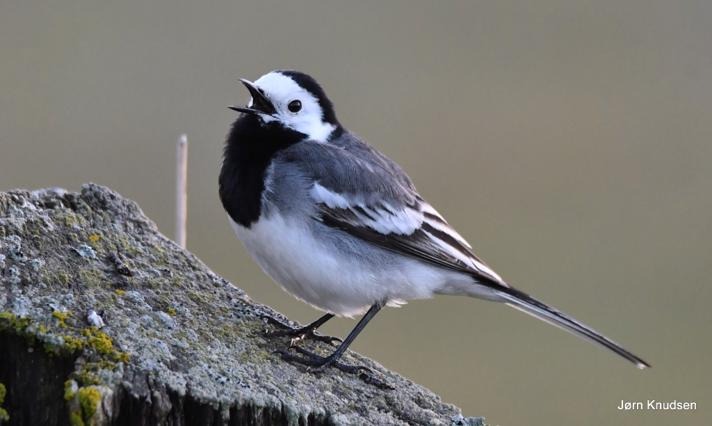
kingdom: Animalia
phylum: Chordata
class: Aves
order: Passeriformes
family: Motacillidae
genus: Motacilla
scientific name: Motacilla alba
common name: Hvid vipstjert
